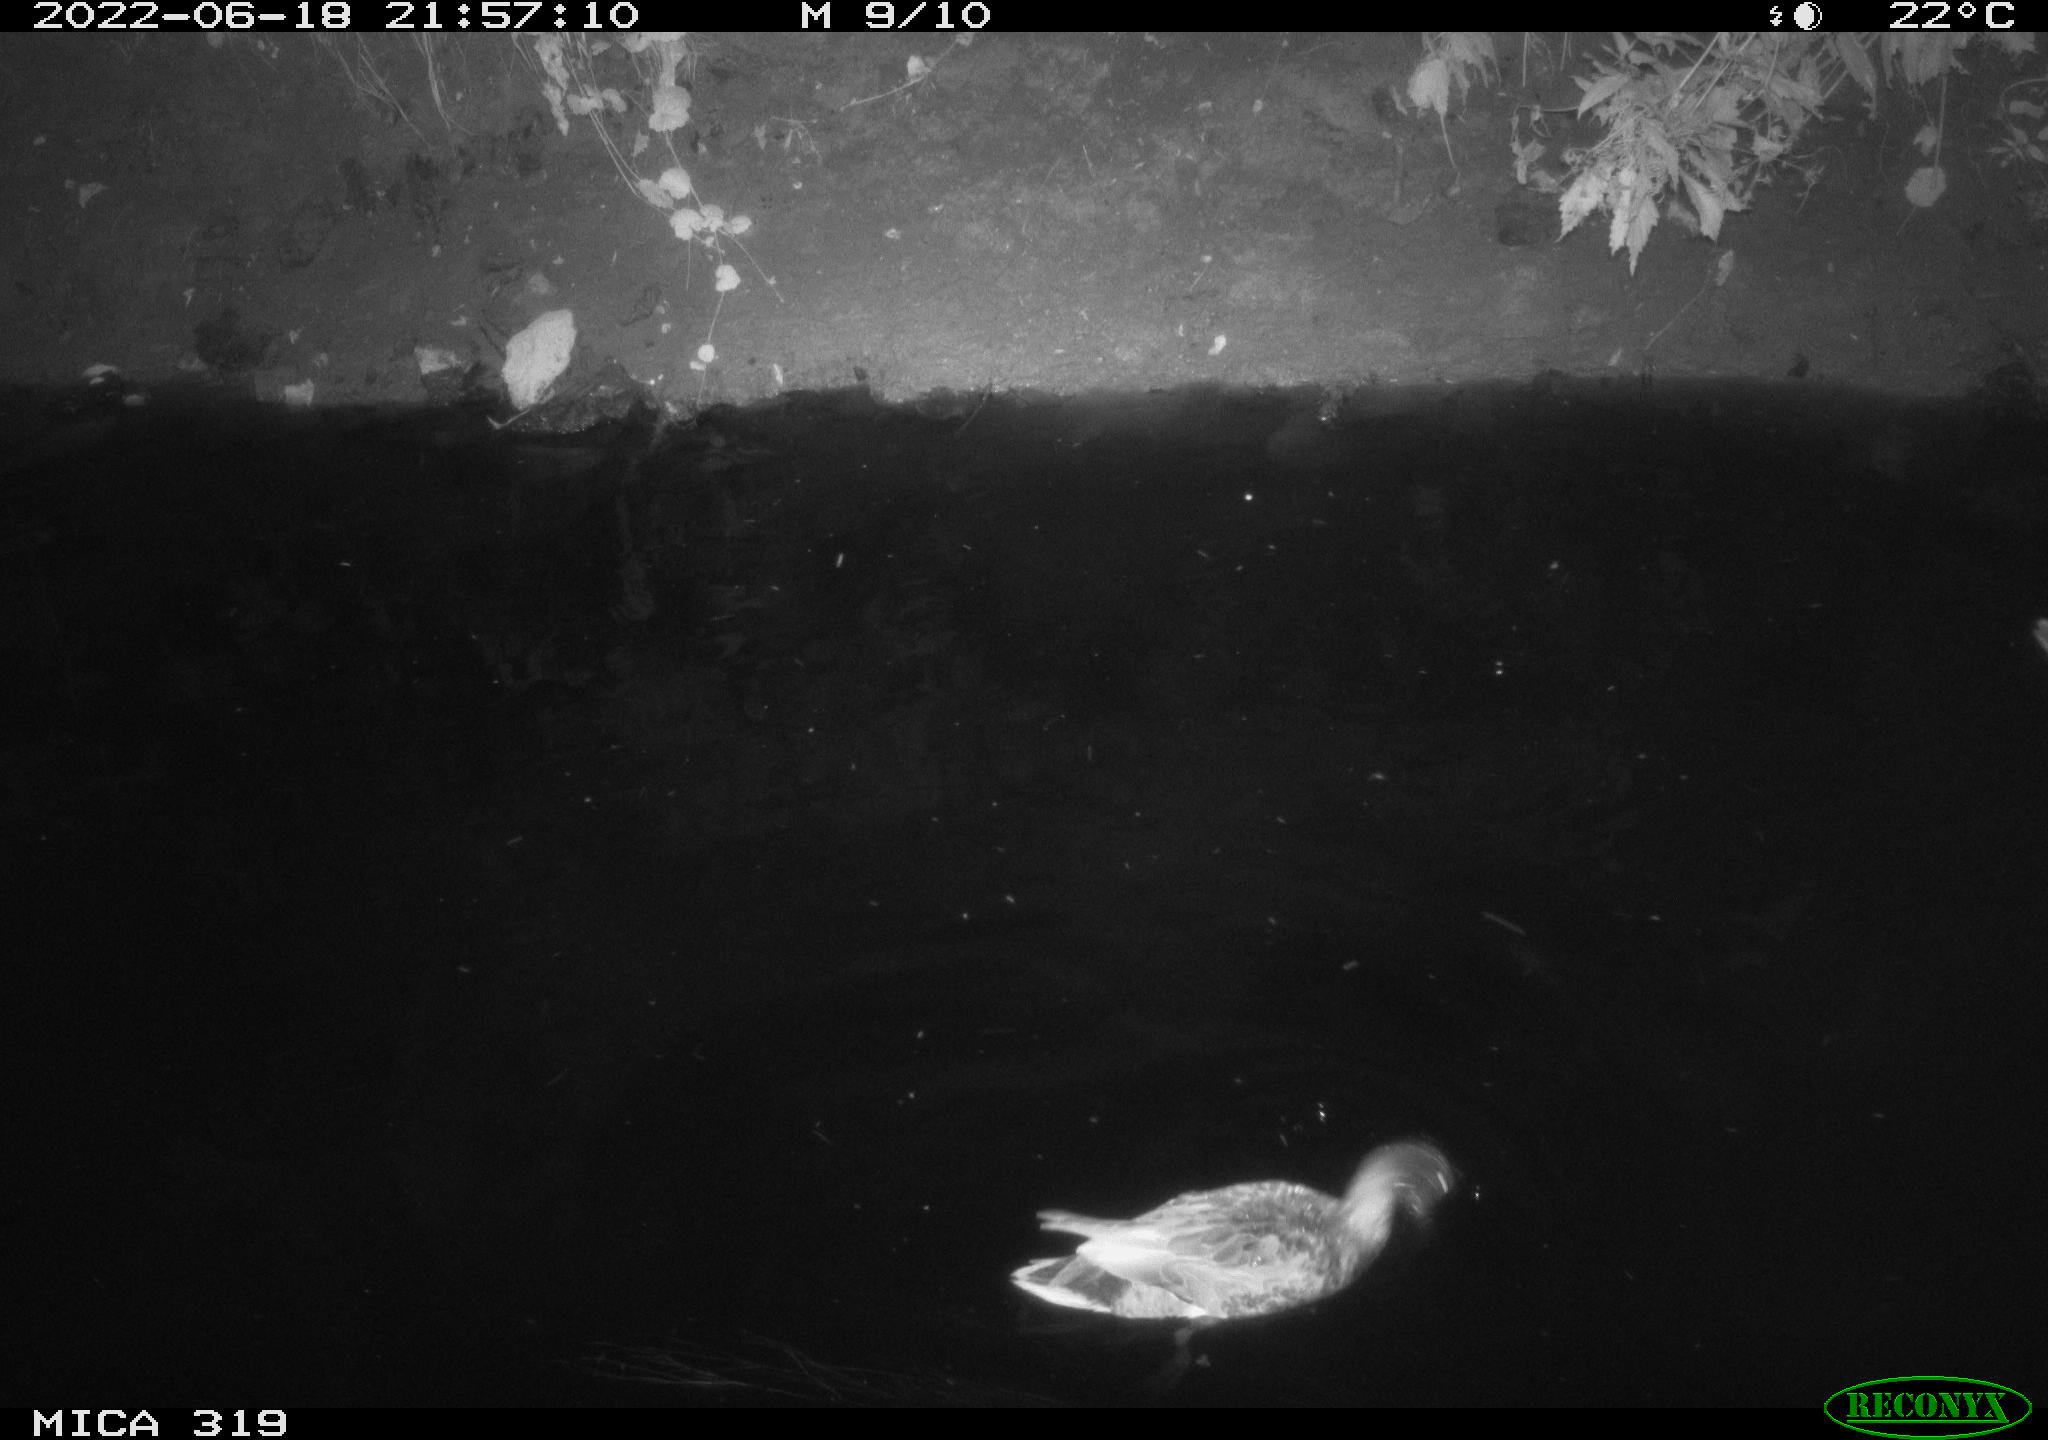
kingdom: Animalia
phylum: Chordata
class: Aves
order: Anseriformes
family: Anatidae
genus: Mareca
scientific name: Mareca strepera
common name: Gadwall
